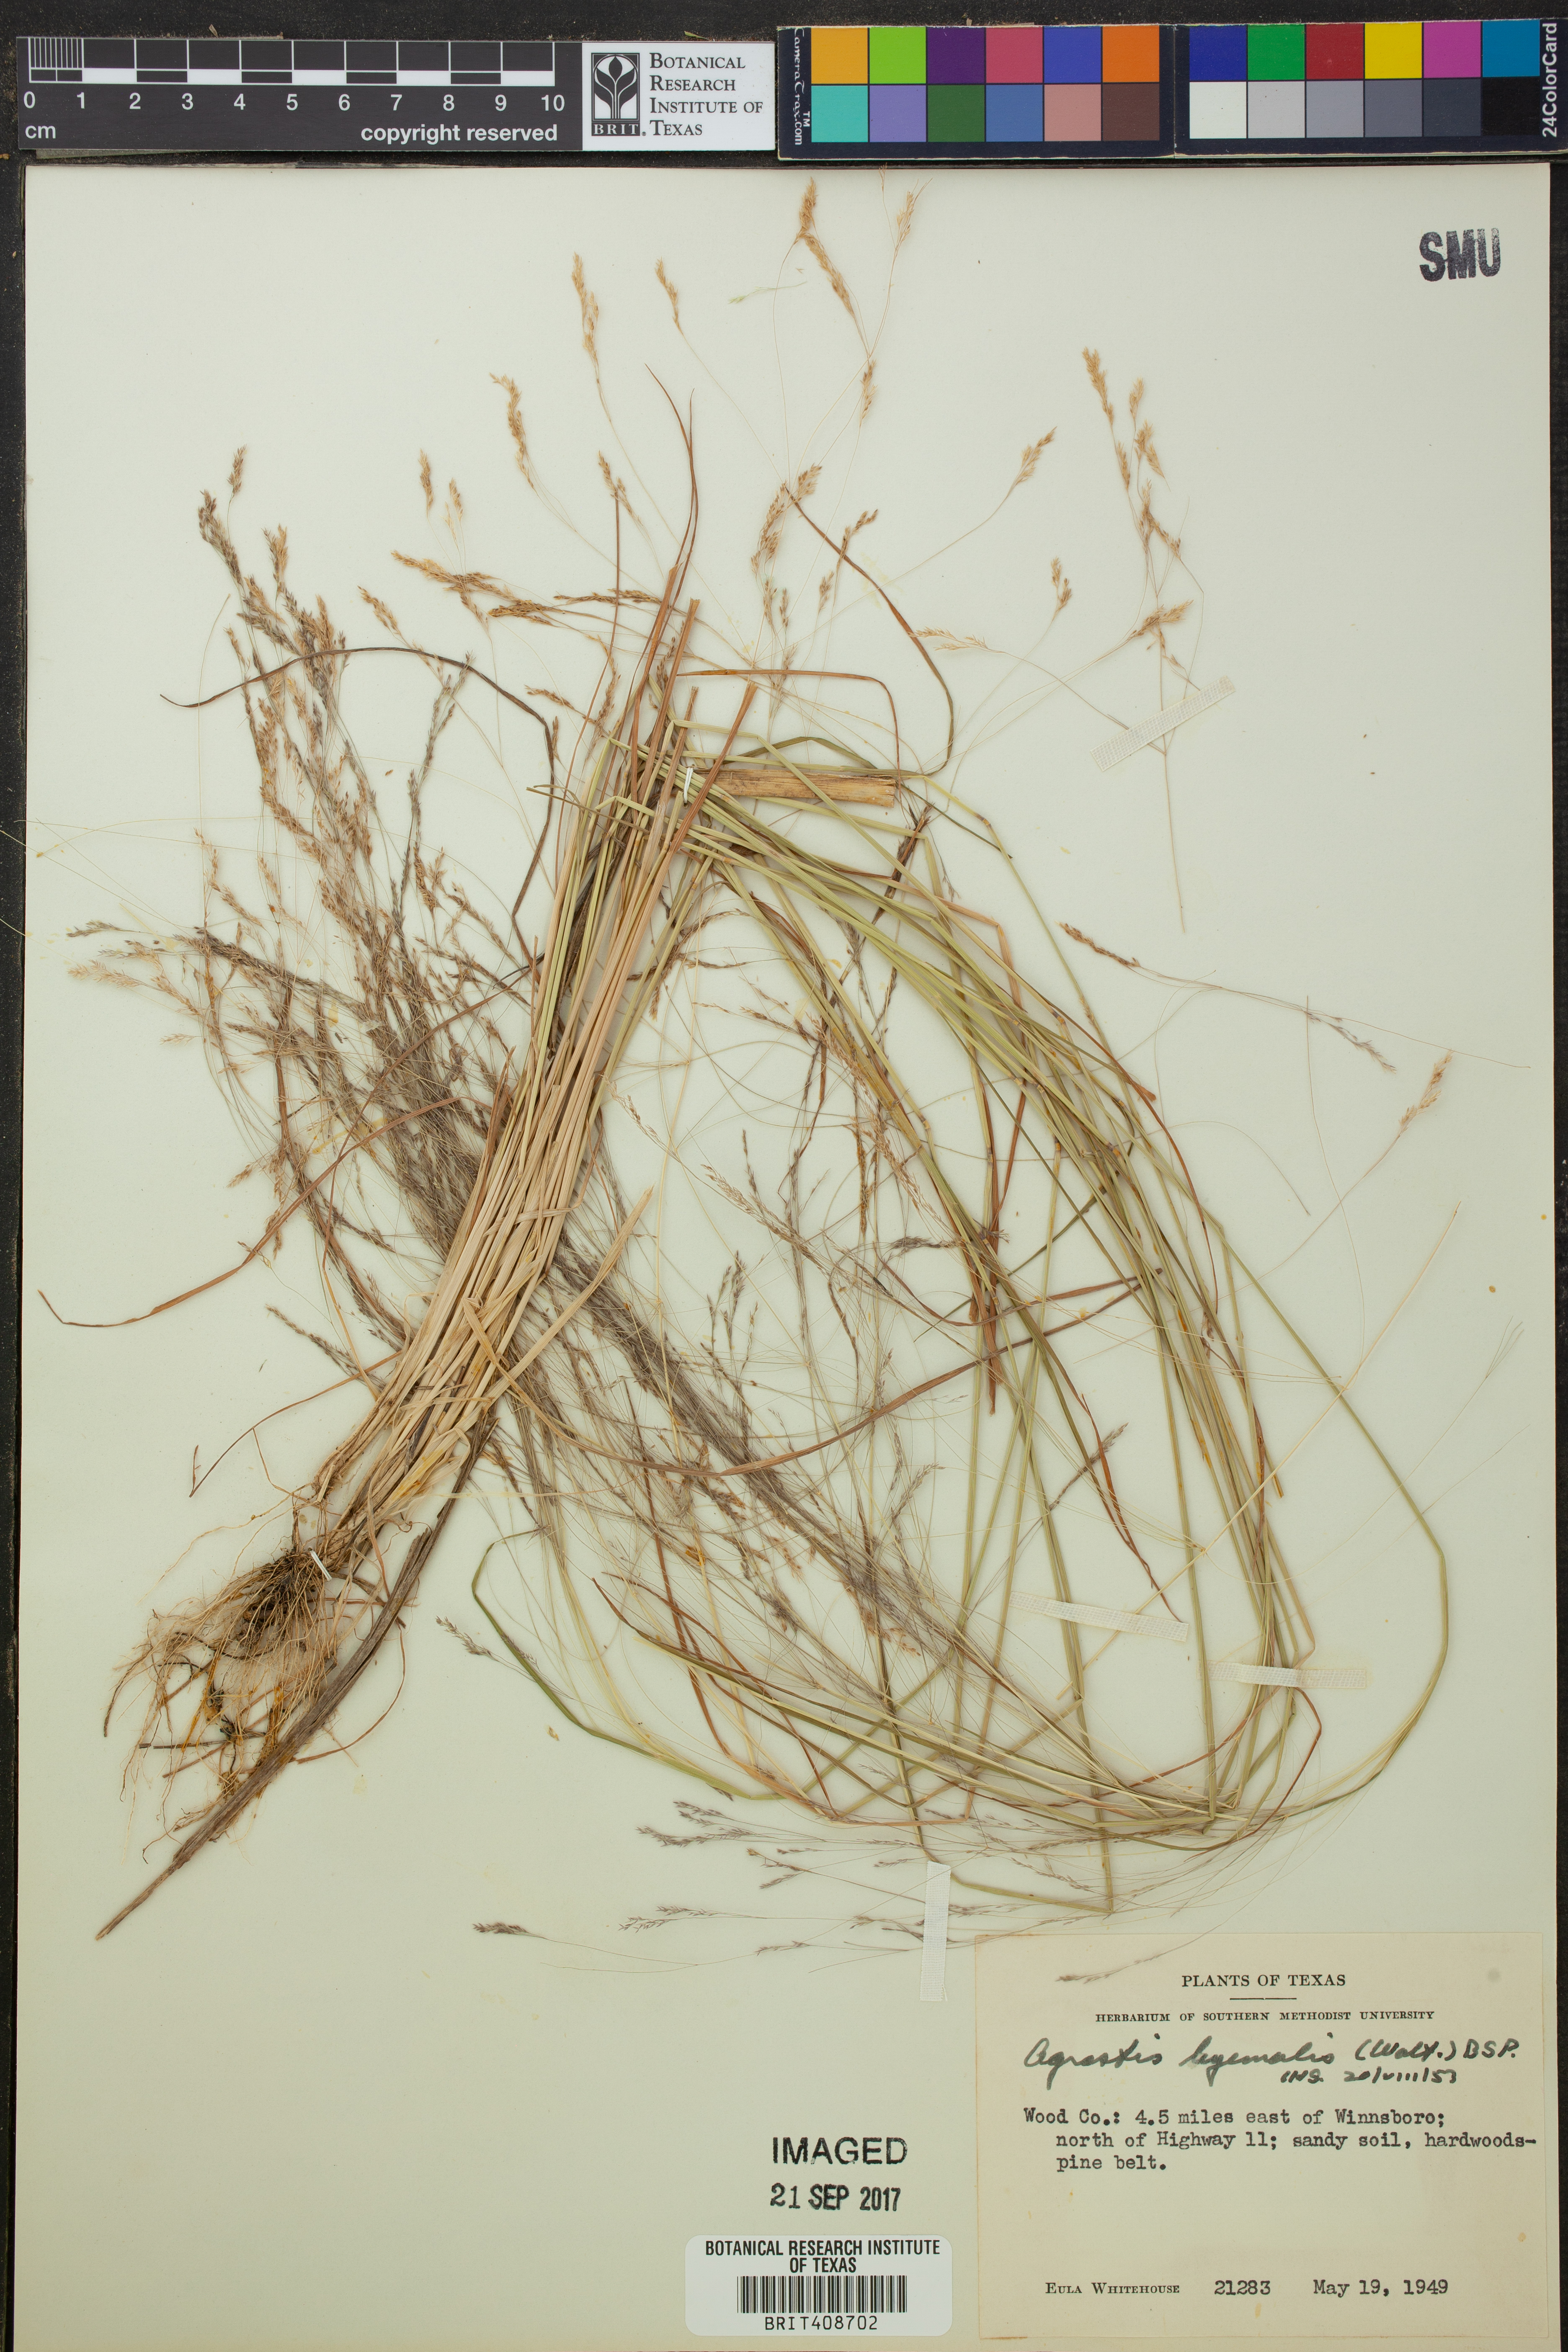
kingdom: Plantae
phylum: Tracheophyta
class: Liliopsida
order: Poales
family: Poaceae
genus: Agrostis
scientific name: Agrostis hyemalis
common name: Small bent
